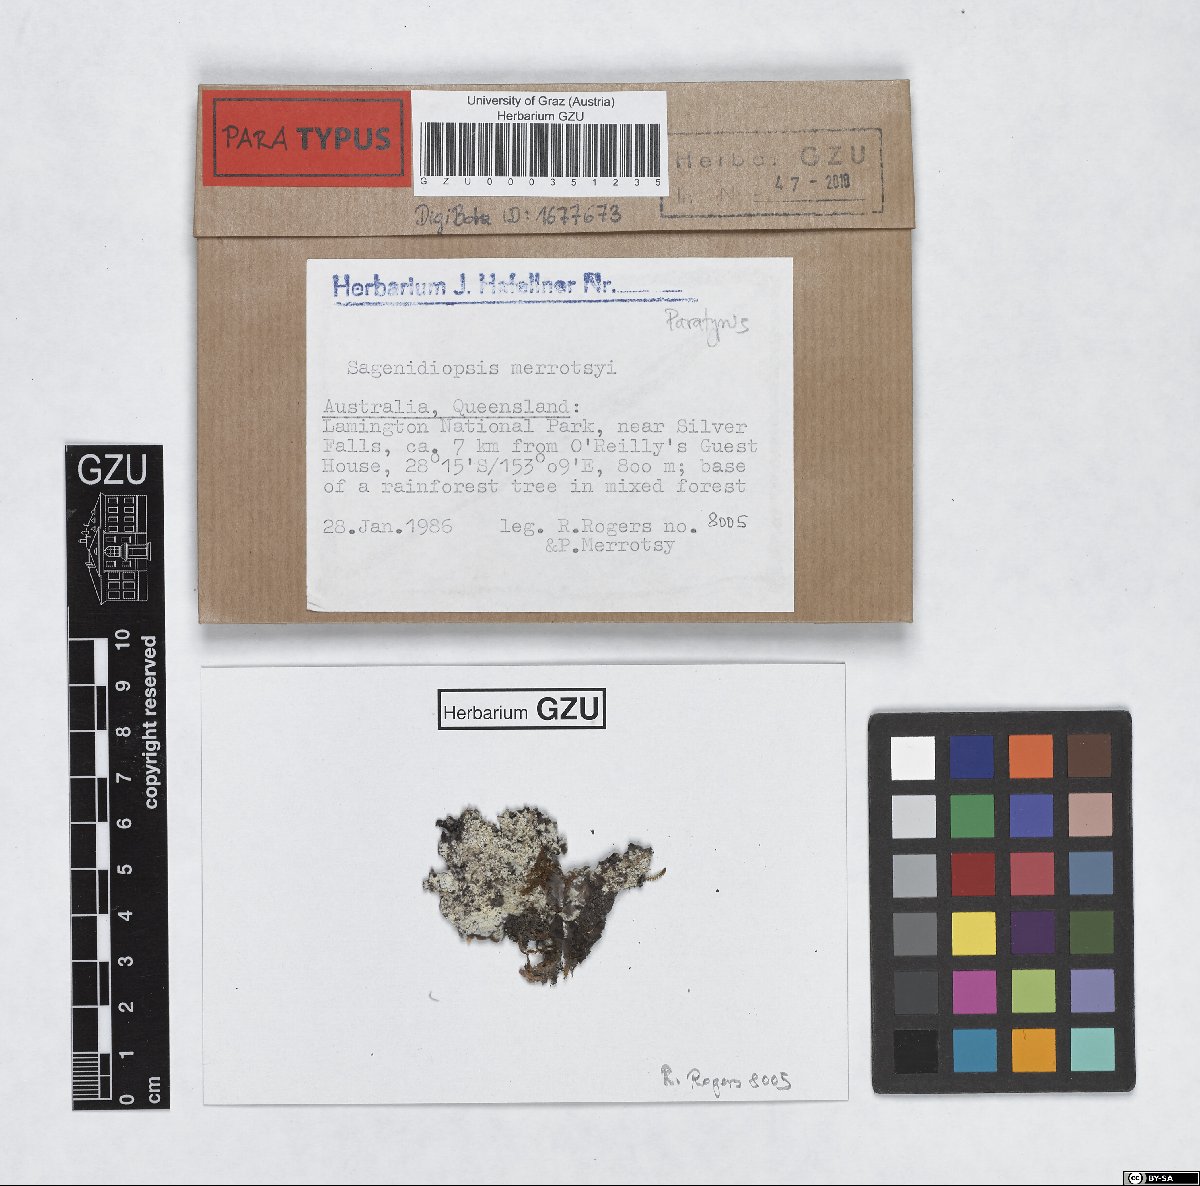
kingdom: Fungi
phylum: Ascomycota
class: Arthoniomycetes
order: Arthoniales
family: Roccellaceae
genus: Sagenidiopsis
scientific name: Sagenidiopsis merrotsyi
